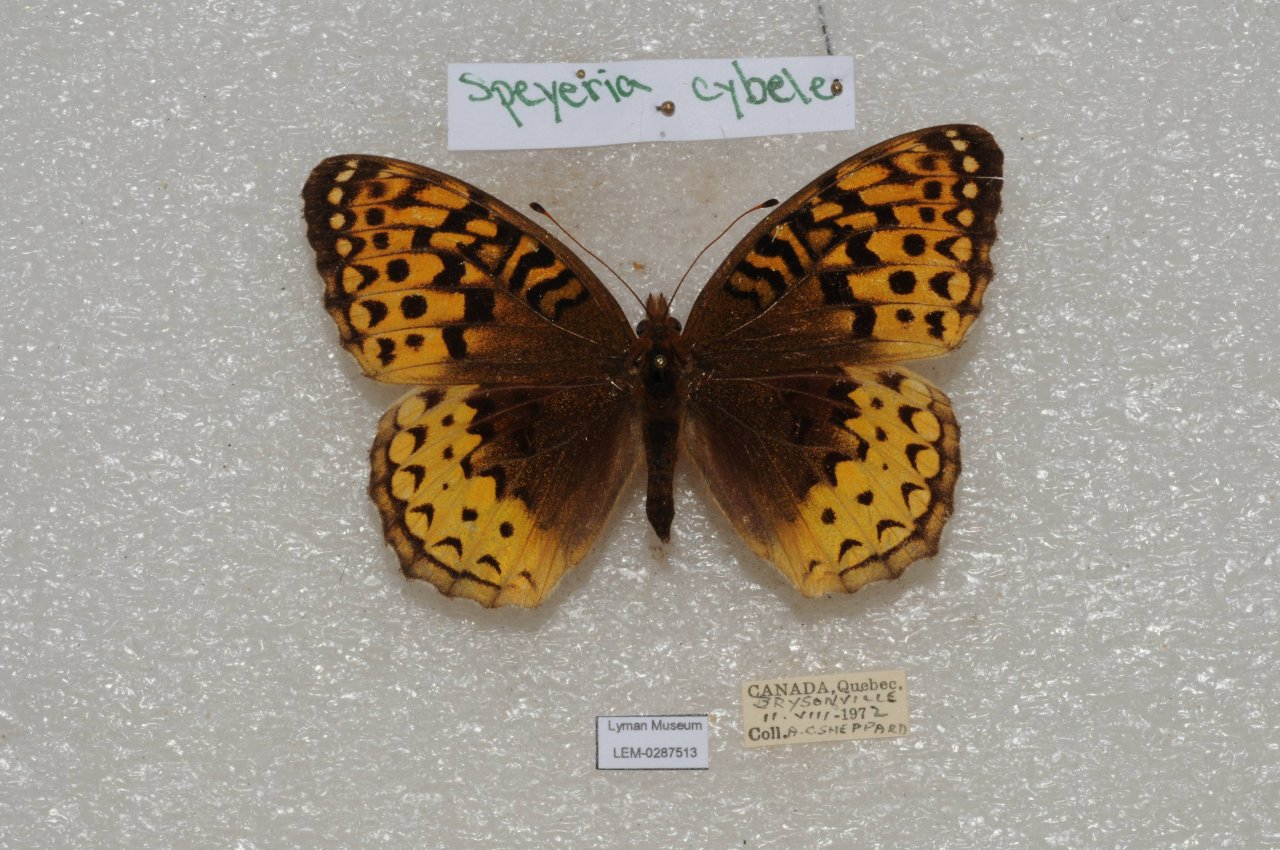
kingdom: Animalia
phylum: Arthropoda
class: Insecta
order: Lepidoptera
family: Nymphalidae
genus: Speyeria
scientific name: Speyeria cybele
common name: Great Spangled Fritillary
